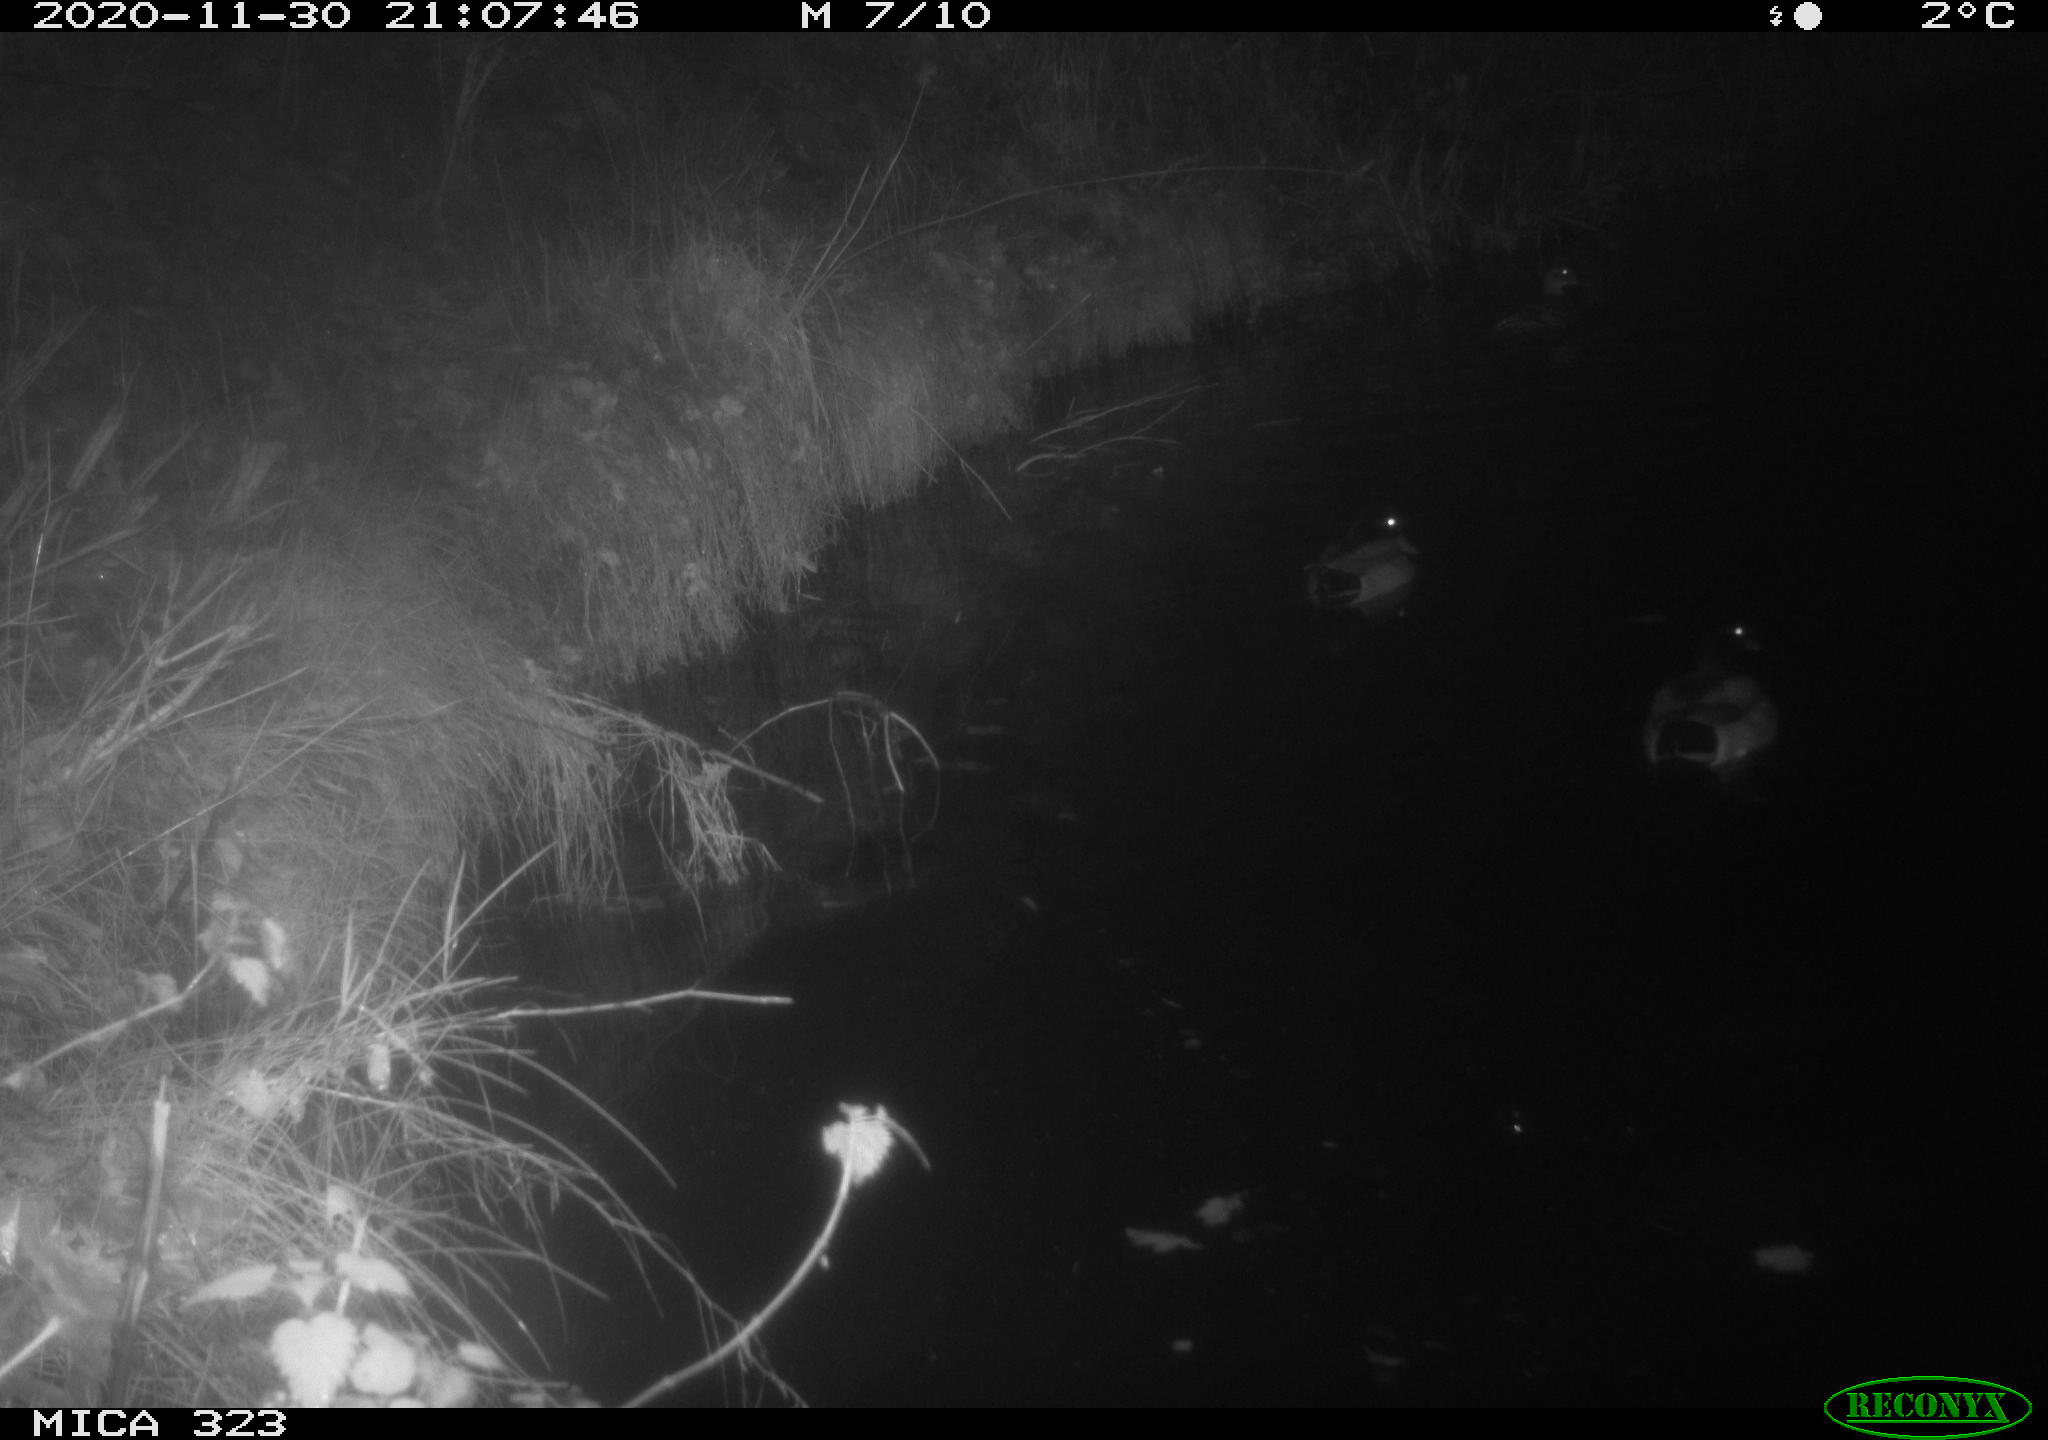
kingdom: Animalia
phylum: Chordata
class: Aves
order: Anseriformes
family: Anatidae
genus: Anas
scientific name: Anas platyrhynchos
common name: Mallard
